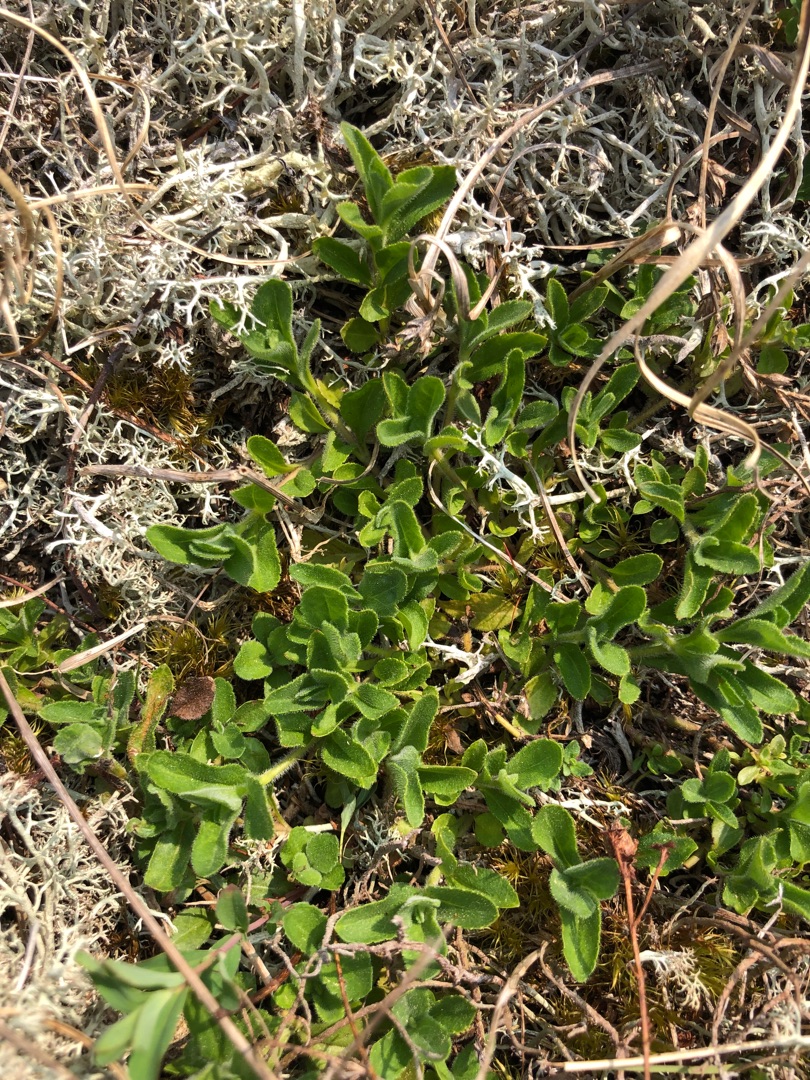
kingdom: Plantae
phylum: Tracheophyta
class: Magnoliopsida
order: Lamiales
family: Plantaginaceae
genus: Veronica
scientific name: Veronica officinalis
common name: Læge-ærenpris
